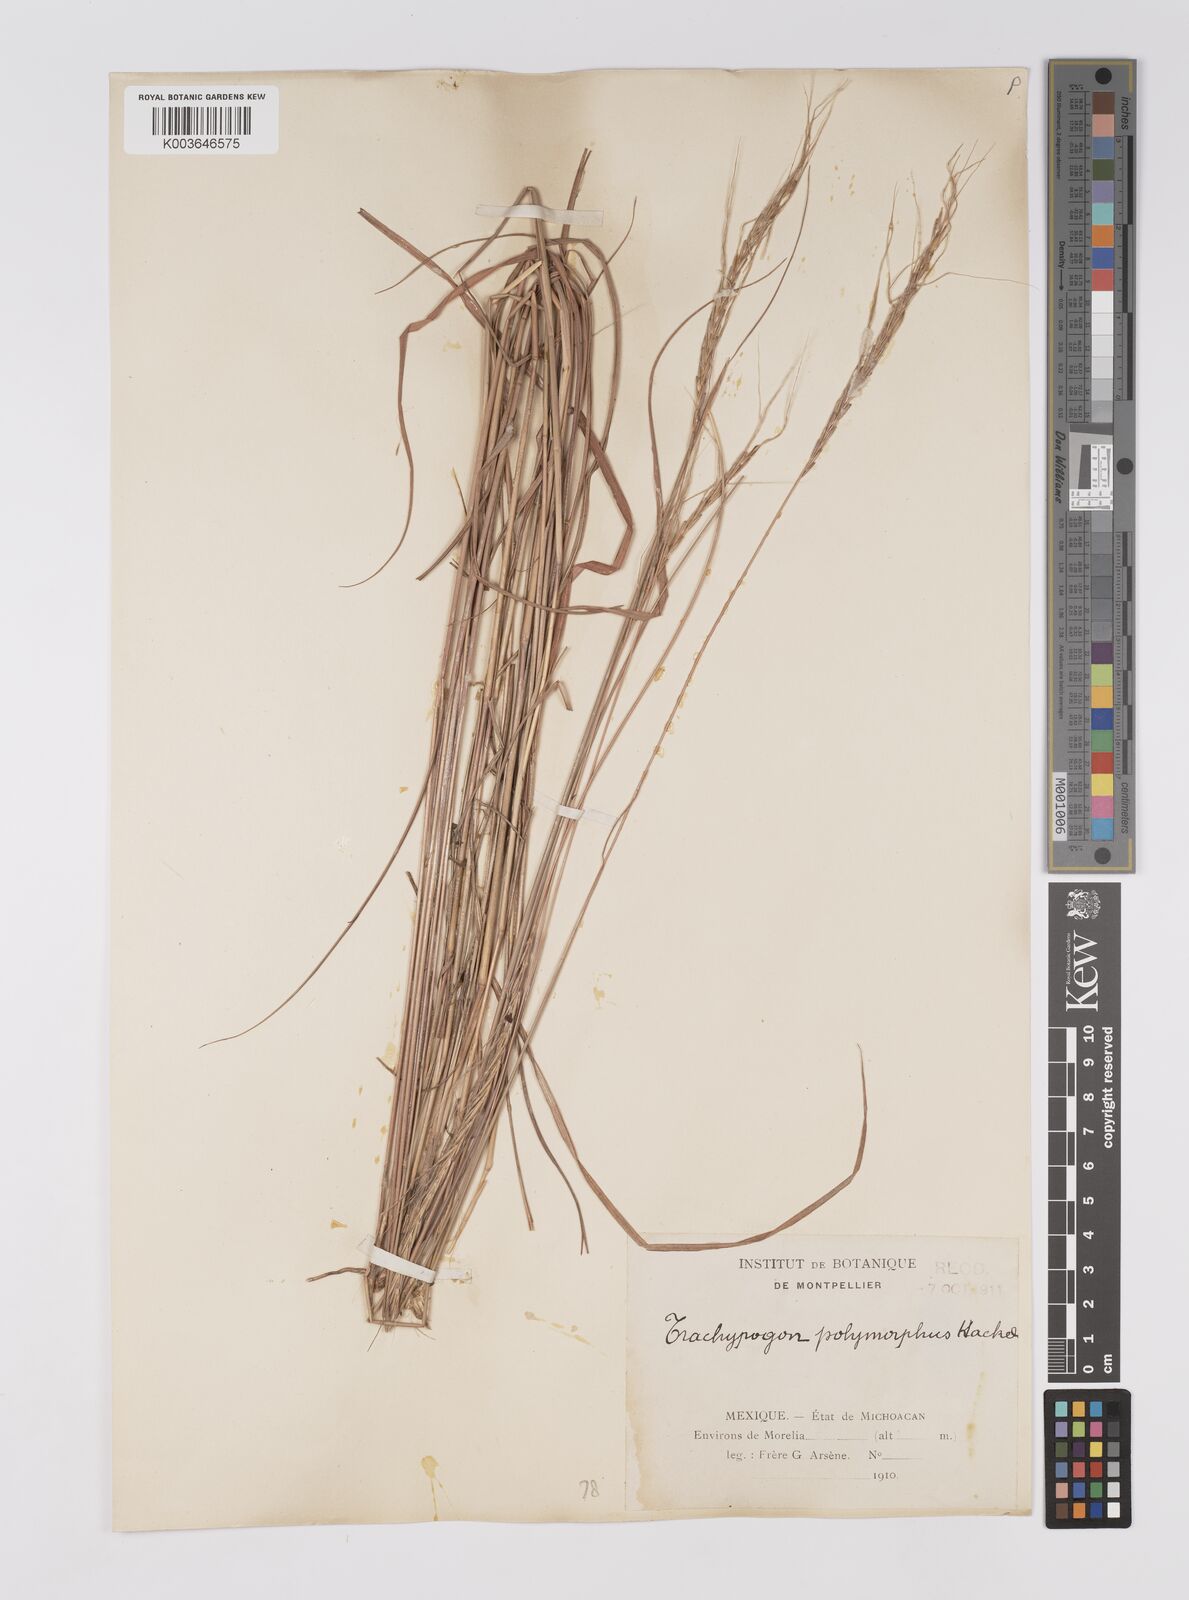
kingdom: Plantae
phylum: Tracheophyta
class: Liliopsida
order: Poales
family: Poaceae
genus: Trachypogon
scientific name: Trachypogon spicatus
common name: Crinkle-awn
